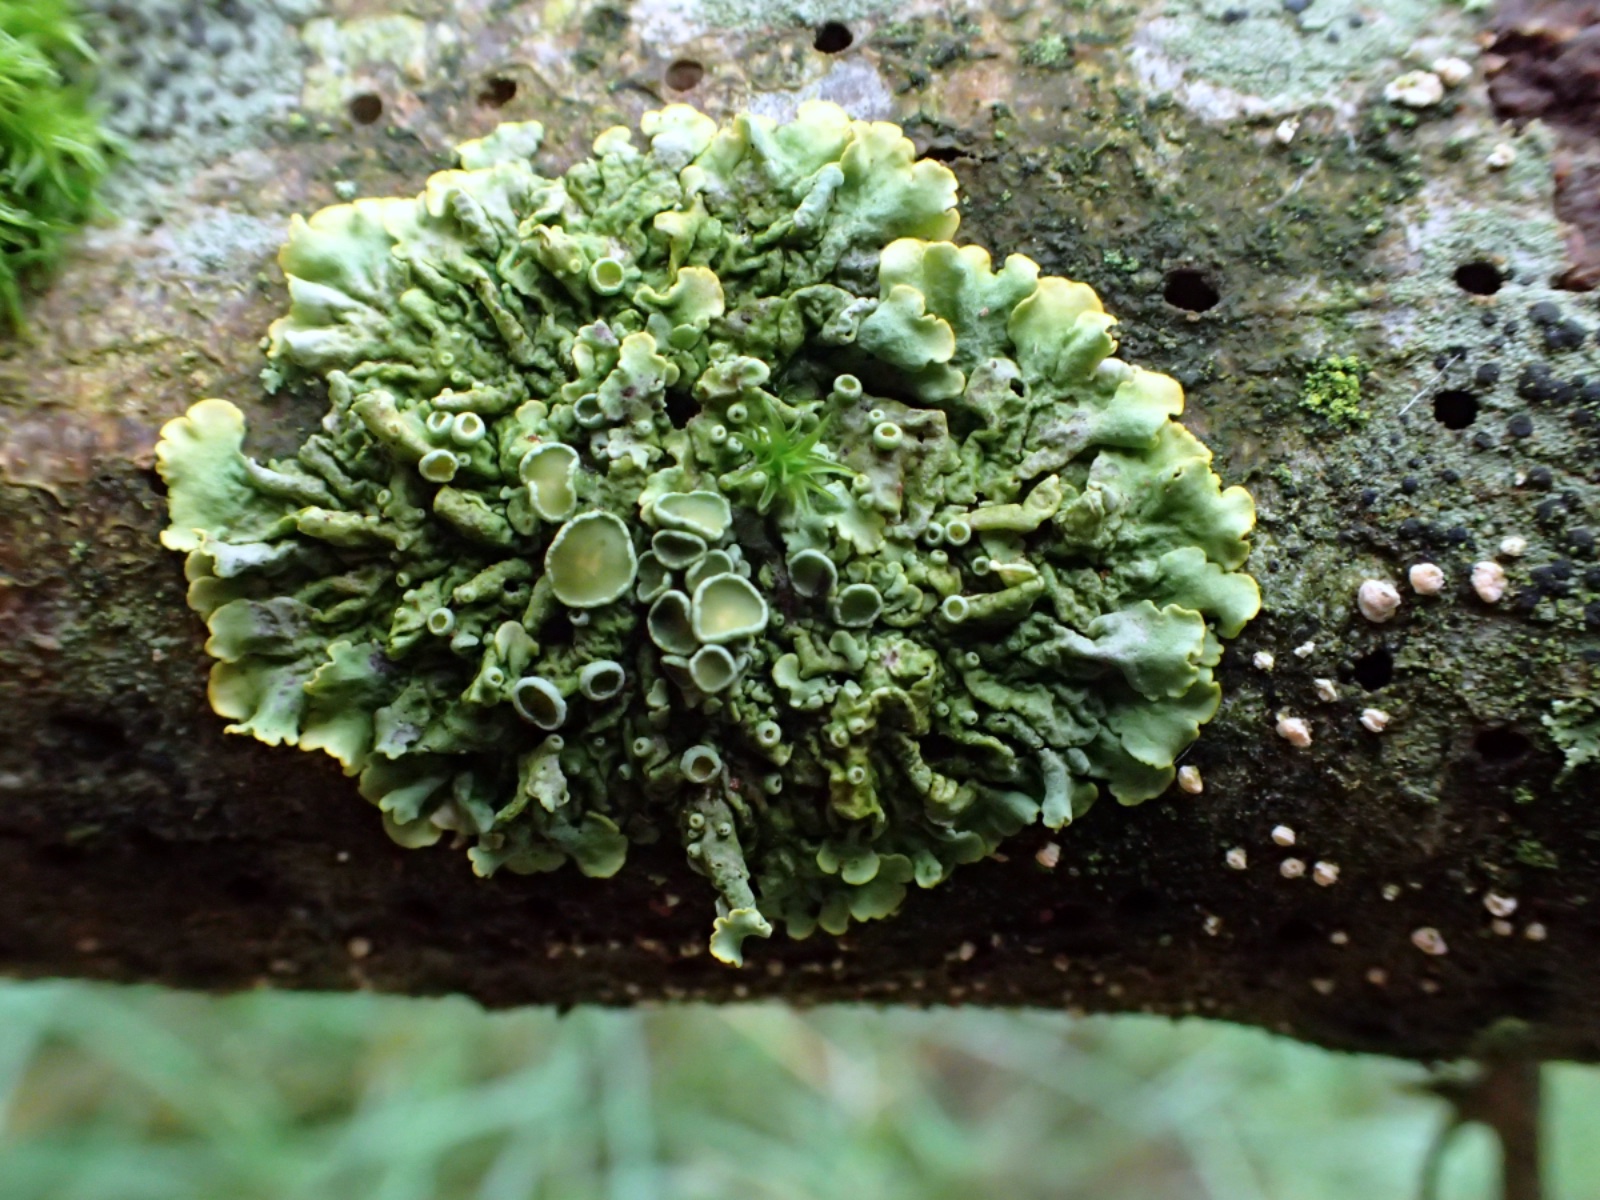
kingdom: Fungi
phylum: Ascomycota
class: Lecanoromycetes
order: Teloschistales
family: Teloschistaceae
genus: Xanthoria
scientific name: Xanthoria parietina
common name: almindelig væggelav
